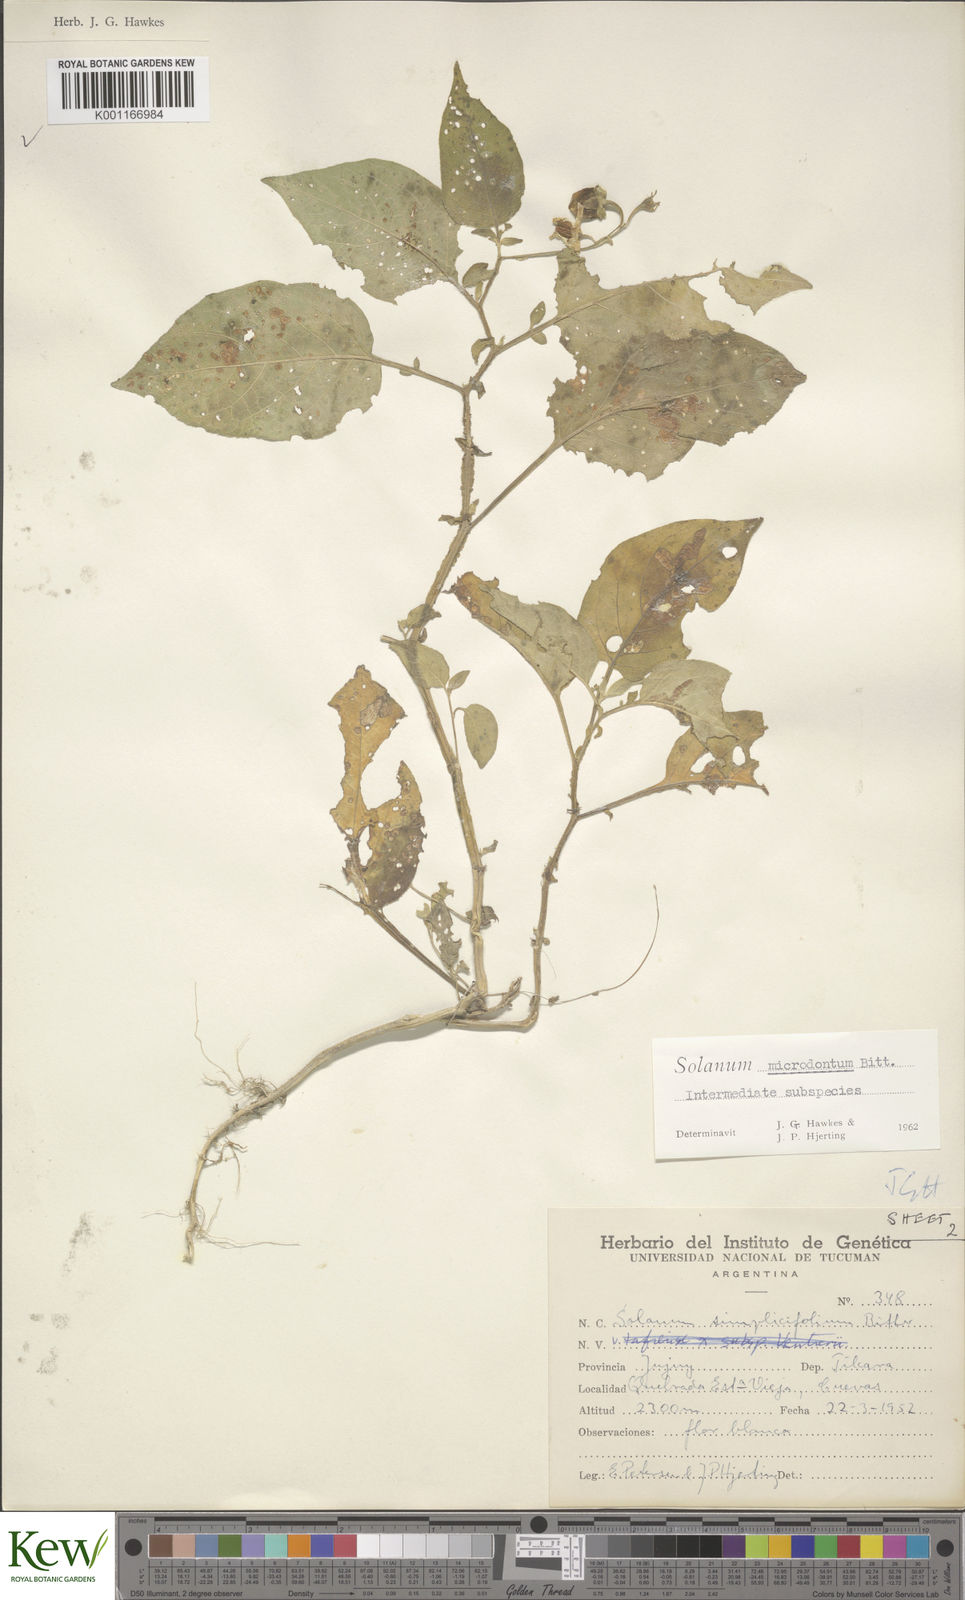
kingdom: Plantae
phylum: Tracheophyta
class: Magnoliopsida
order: Solanales
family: Solanaceae
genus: Solanum
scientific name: Solanum microdontum
